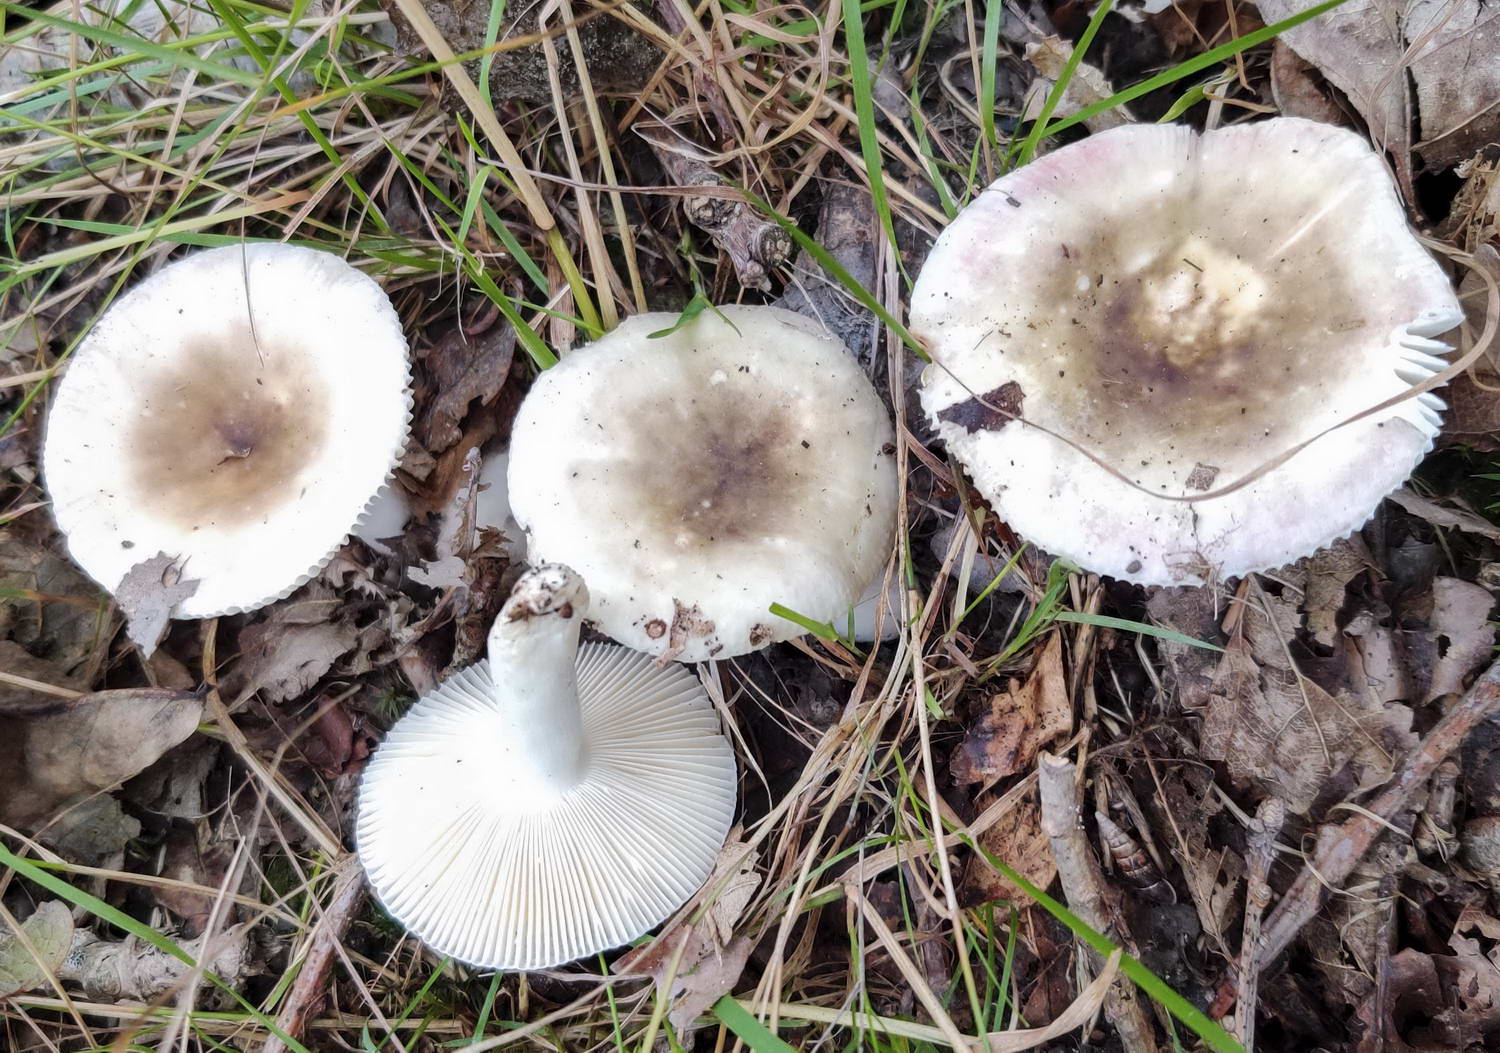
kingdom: Fungi
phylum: Basidiomycota
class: Agaricomycetes
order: Russulales
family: Russulaceae
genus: Russula
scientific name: Russula fragilis
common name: savbladet skørhat
